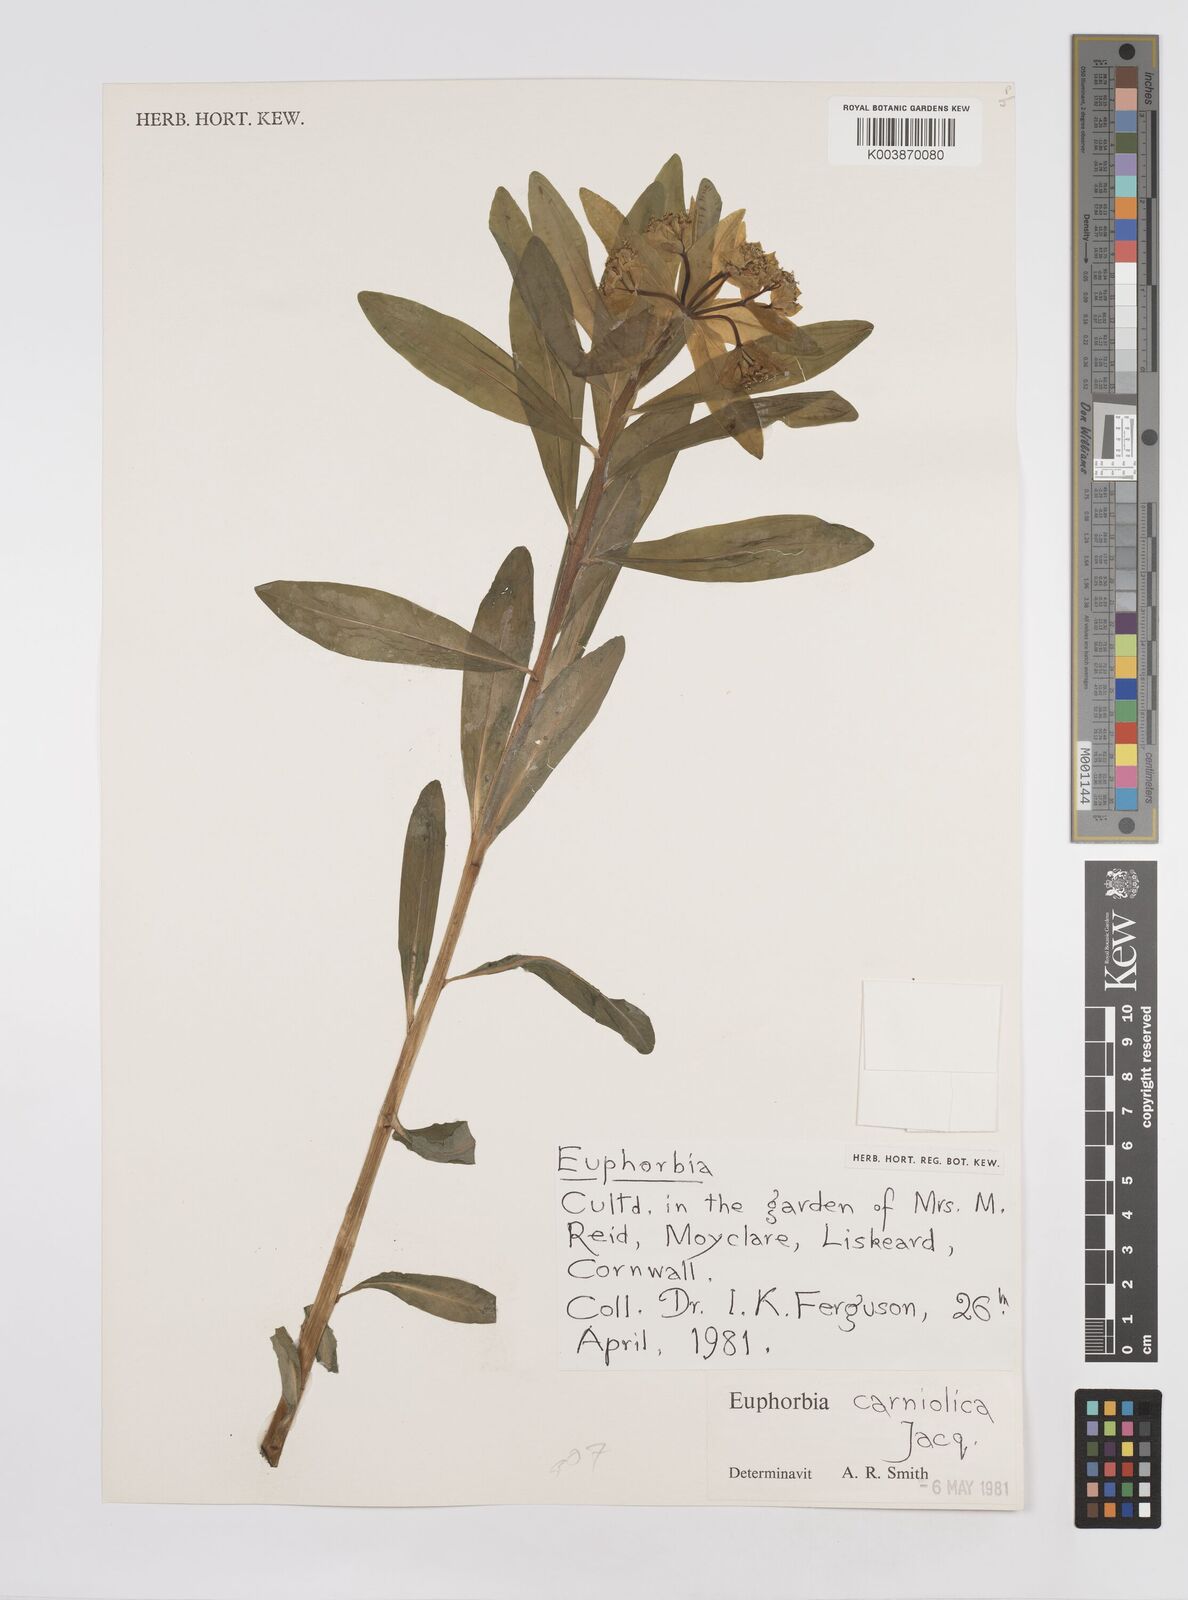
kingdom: Plantae
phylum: Tracheophyta
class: Magnoliopsida
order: Malpighiales
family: Euphorbiaceae
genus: Euphorbia
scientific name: Euphorbia
